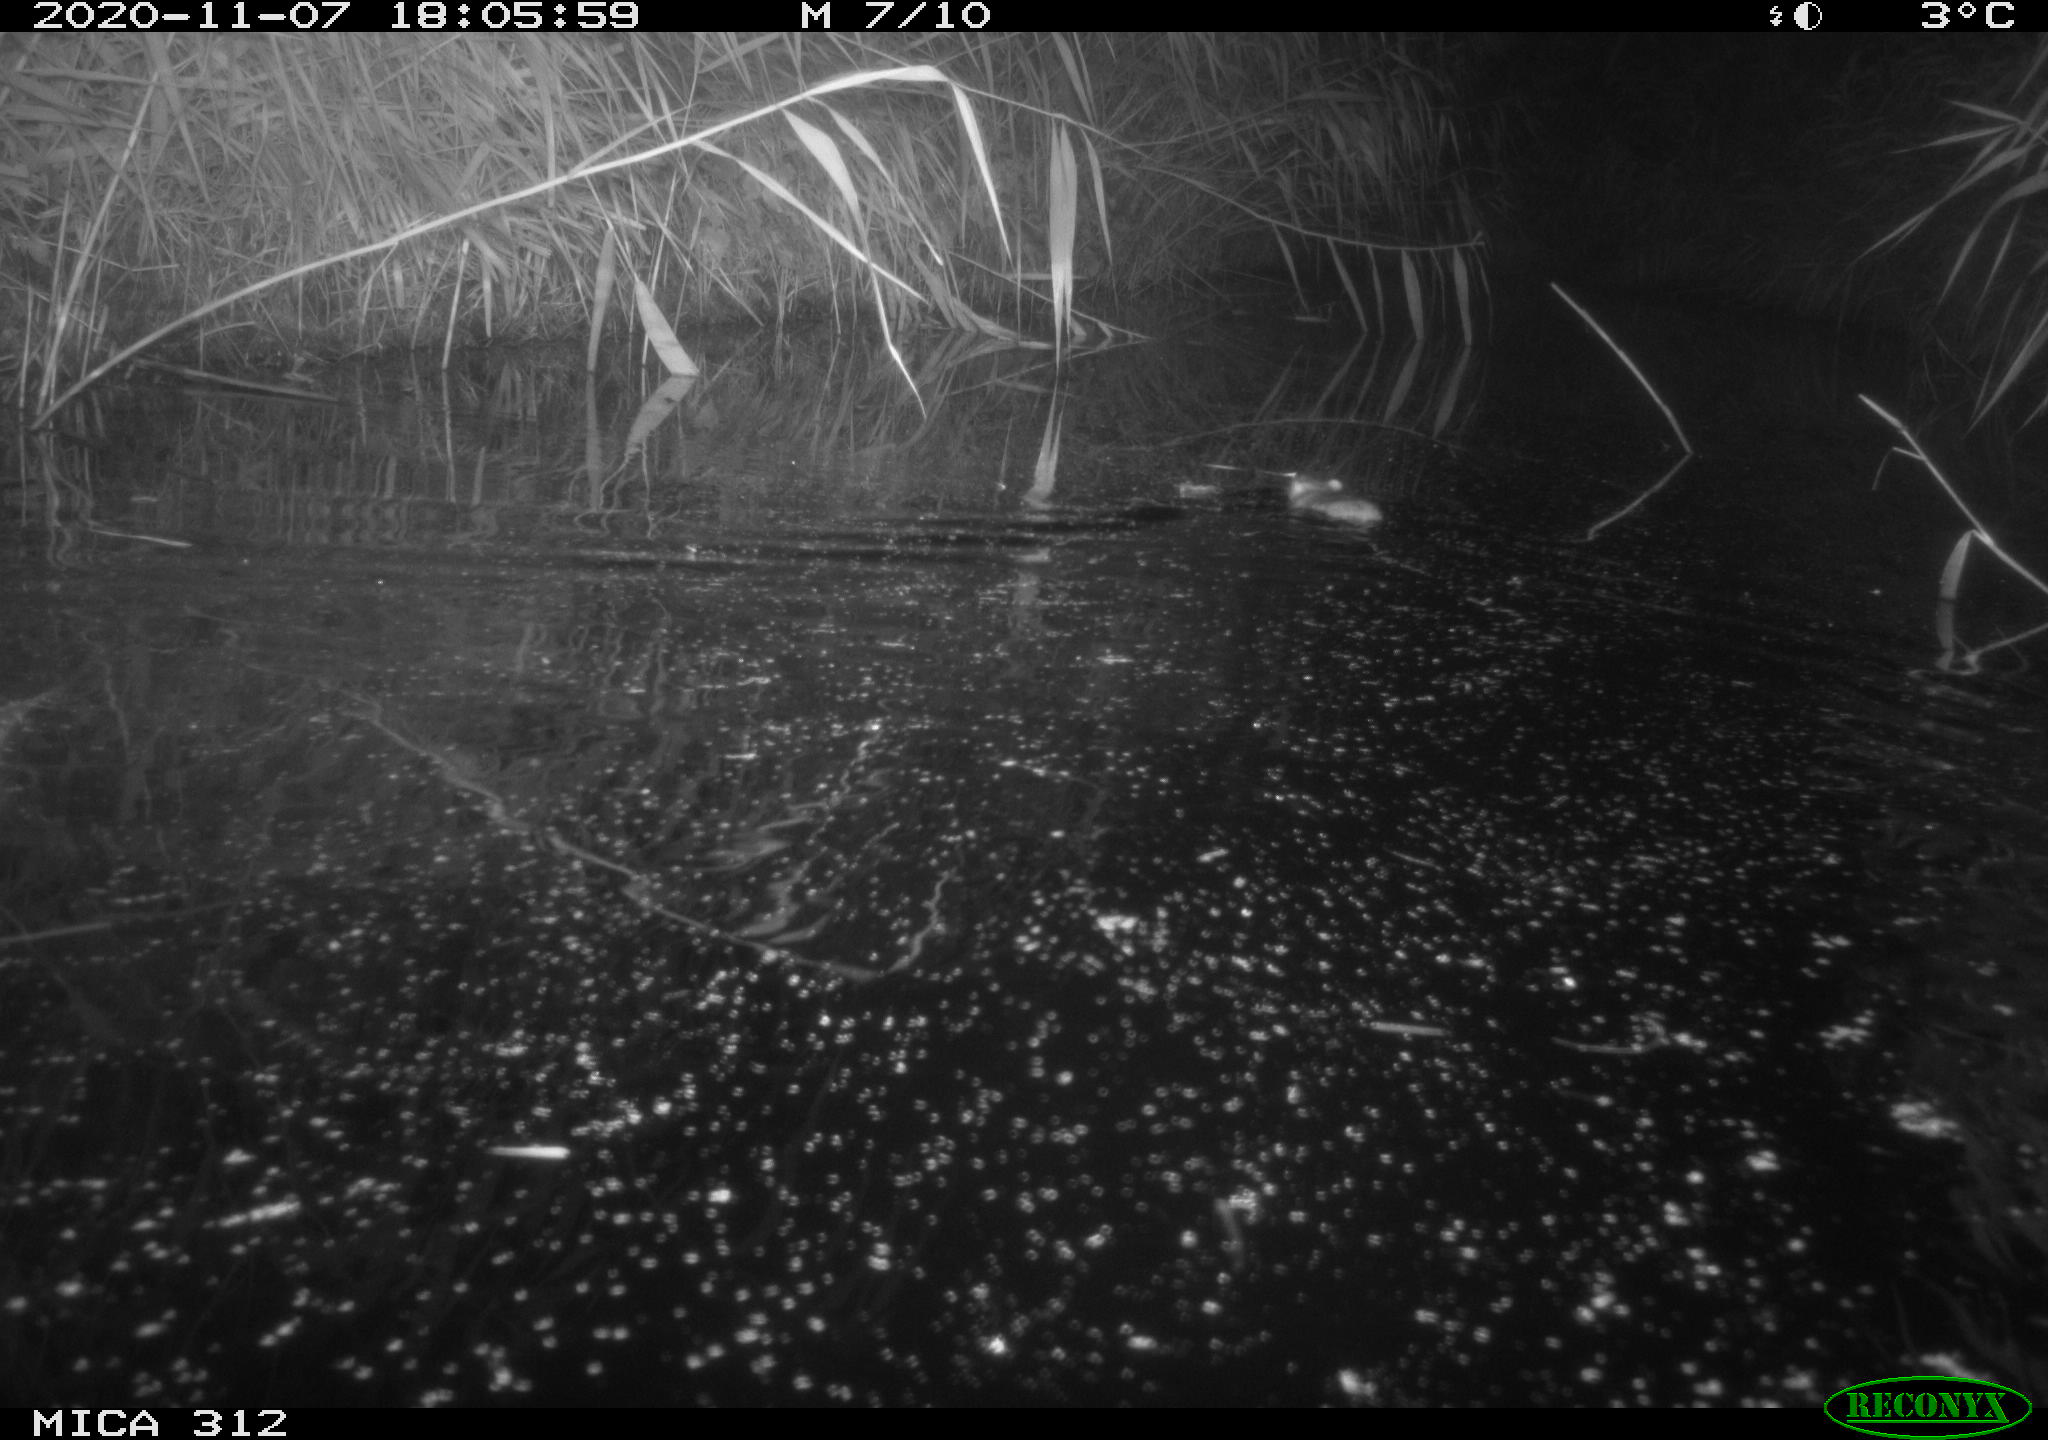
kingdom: Animalia
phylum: Chordata
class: Mammalia
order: Rodentia
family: Muridae
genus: Rattus
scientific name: Rattus norvegicus
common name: Brown rat
